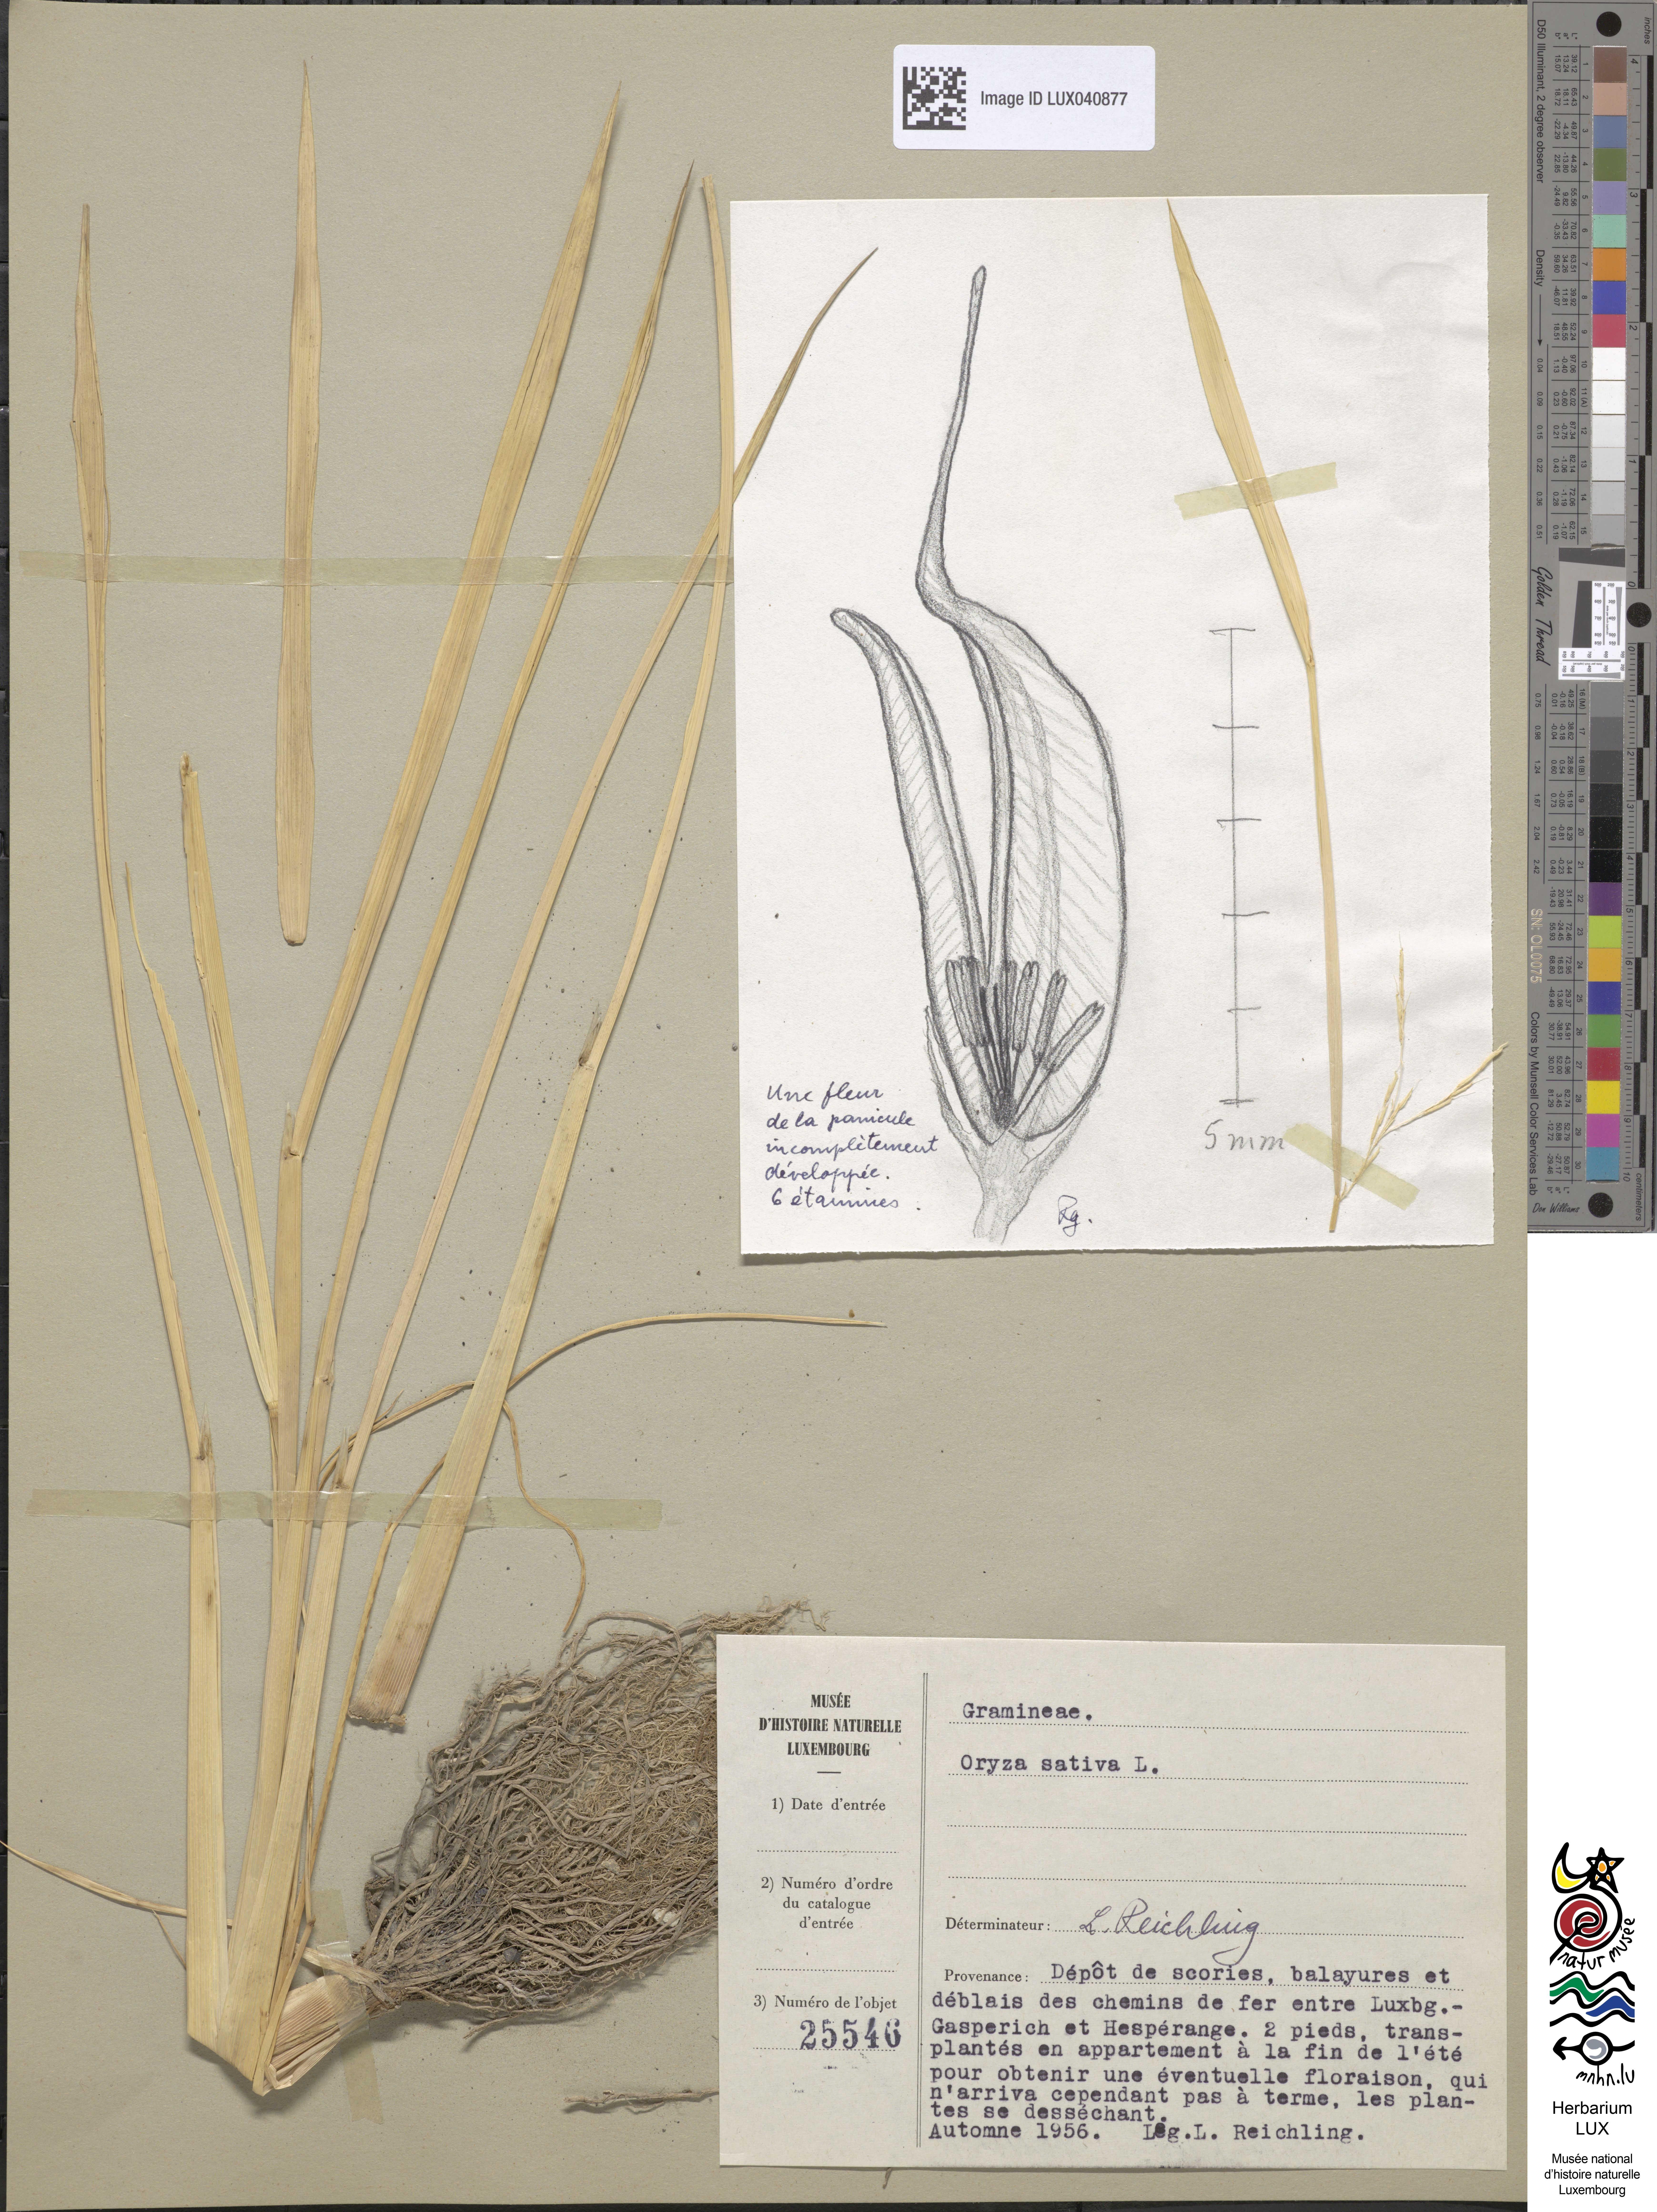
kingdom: Plantae
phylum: Tracheophyta
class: Liliopsida
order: Poales
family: Poaceae
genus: Oryza
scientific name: Oryza sativa
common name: Rice
